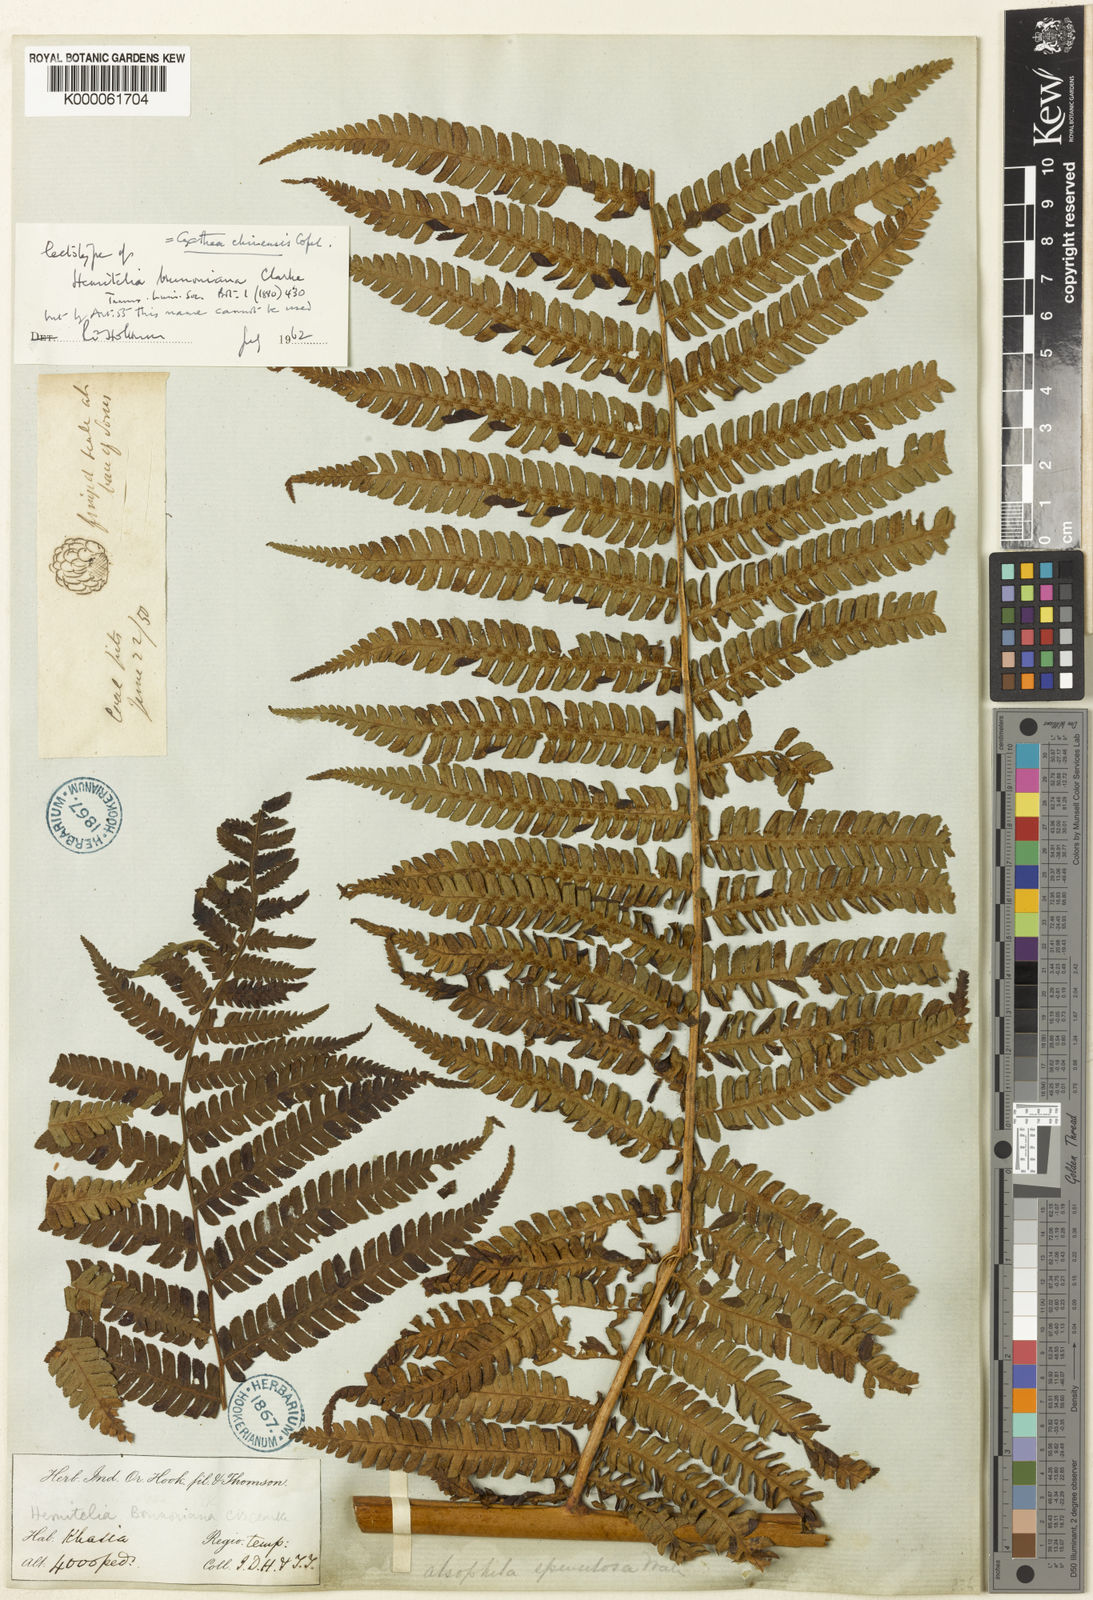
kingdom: Plantae
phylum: Tracheophyta
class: Polypodiopsida
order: Cyatheales
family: Cyatheaceae
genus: Sphaeropteris
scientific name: Sphaeropteris chinensis
